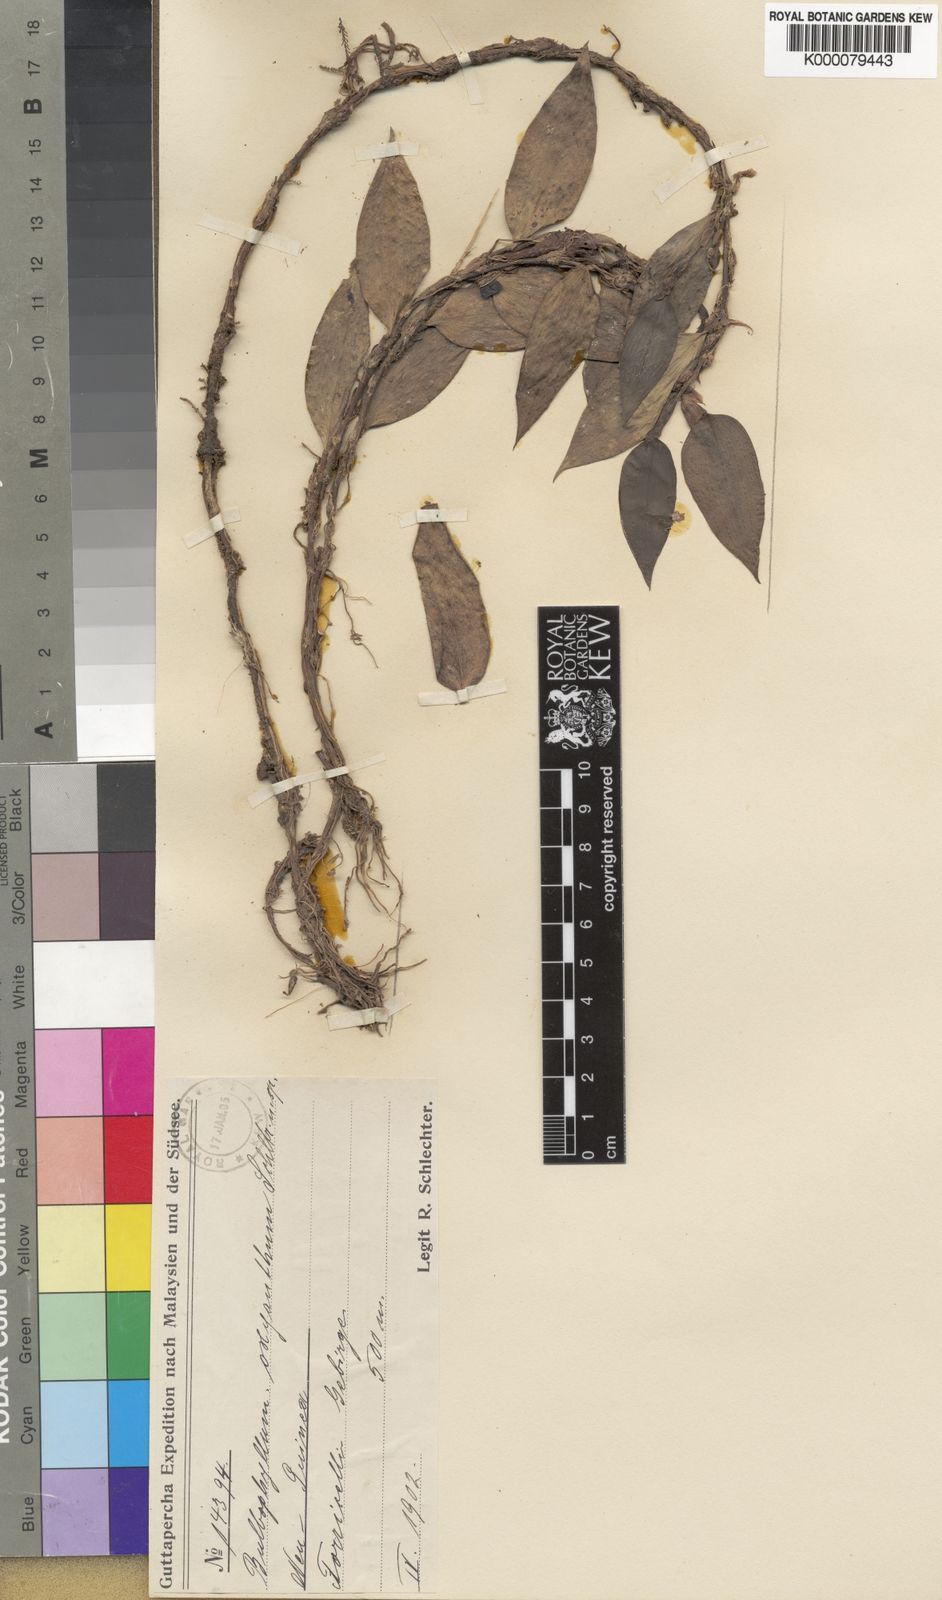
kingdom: Plantae
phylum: Tracheophyta
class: Liliopsida
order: Asparagales
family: Orchidaceae
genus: Bulbophyllum
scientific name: Bulbophyllum oxyanthum
